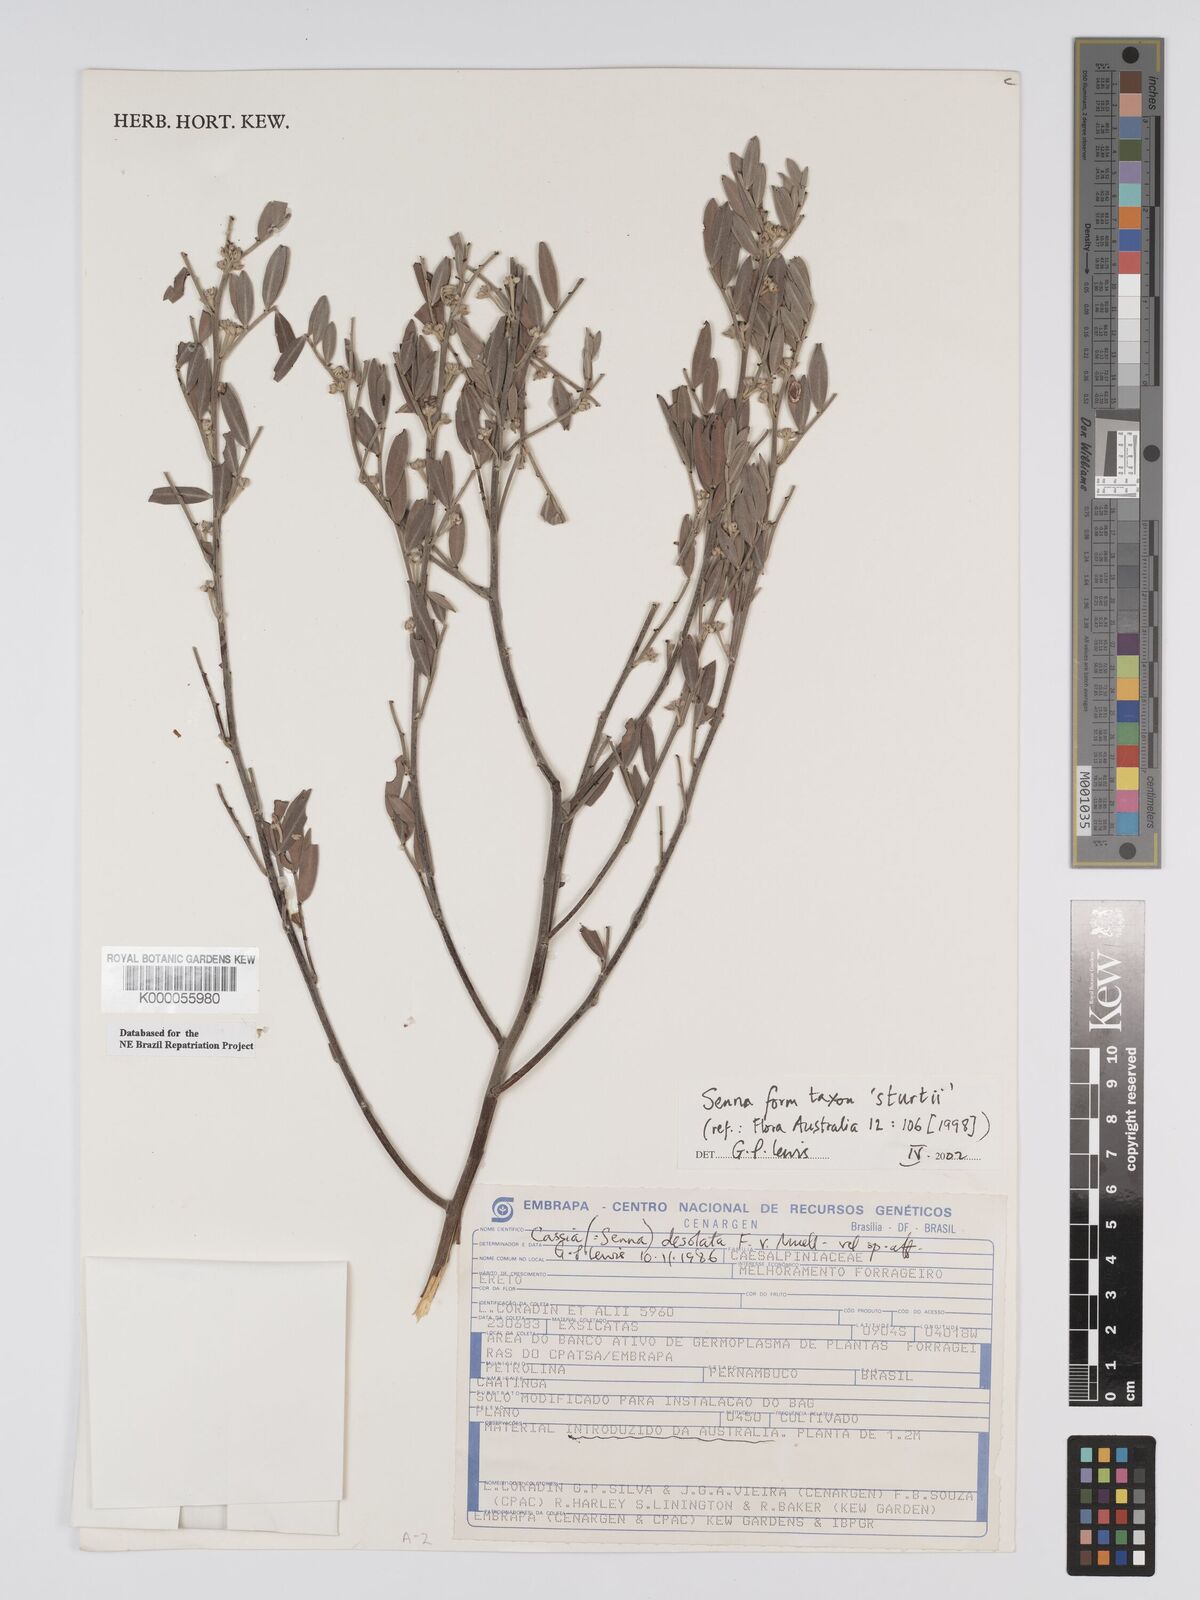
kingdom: Plantae
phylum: Tracheophyta
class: Magnoliopsida
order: Fabales
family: Fabaceae
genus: Senna
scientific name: Senna
